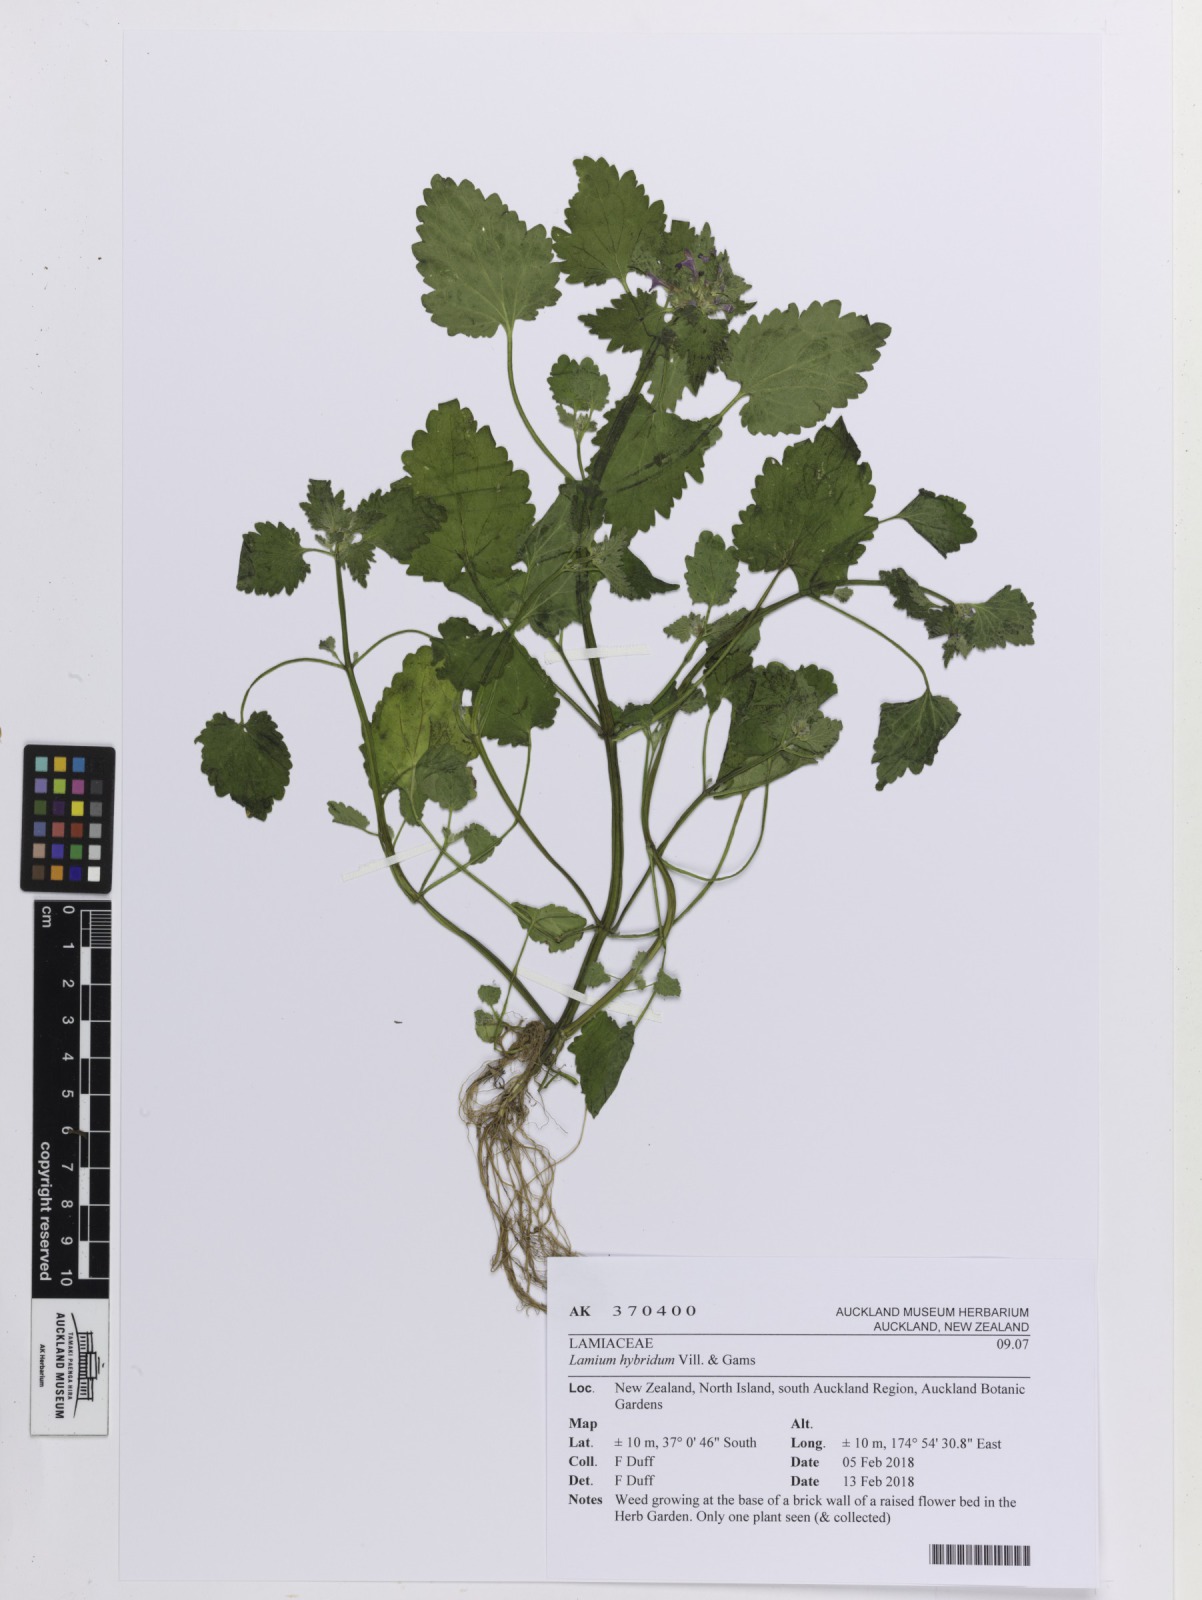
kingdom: Plantae
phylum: Tracheophyta
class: Magnoliopsida
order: Lamiales
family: Lamiaceae
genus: Lamium
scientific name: Lamium hybridum
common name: Cut-leaved dead-nettle
